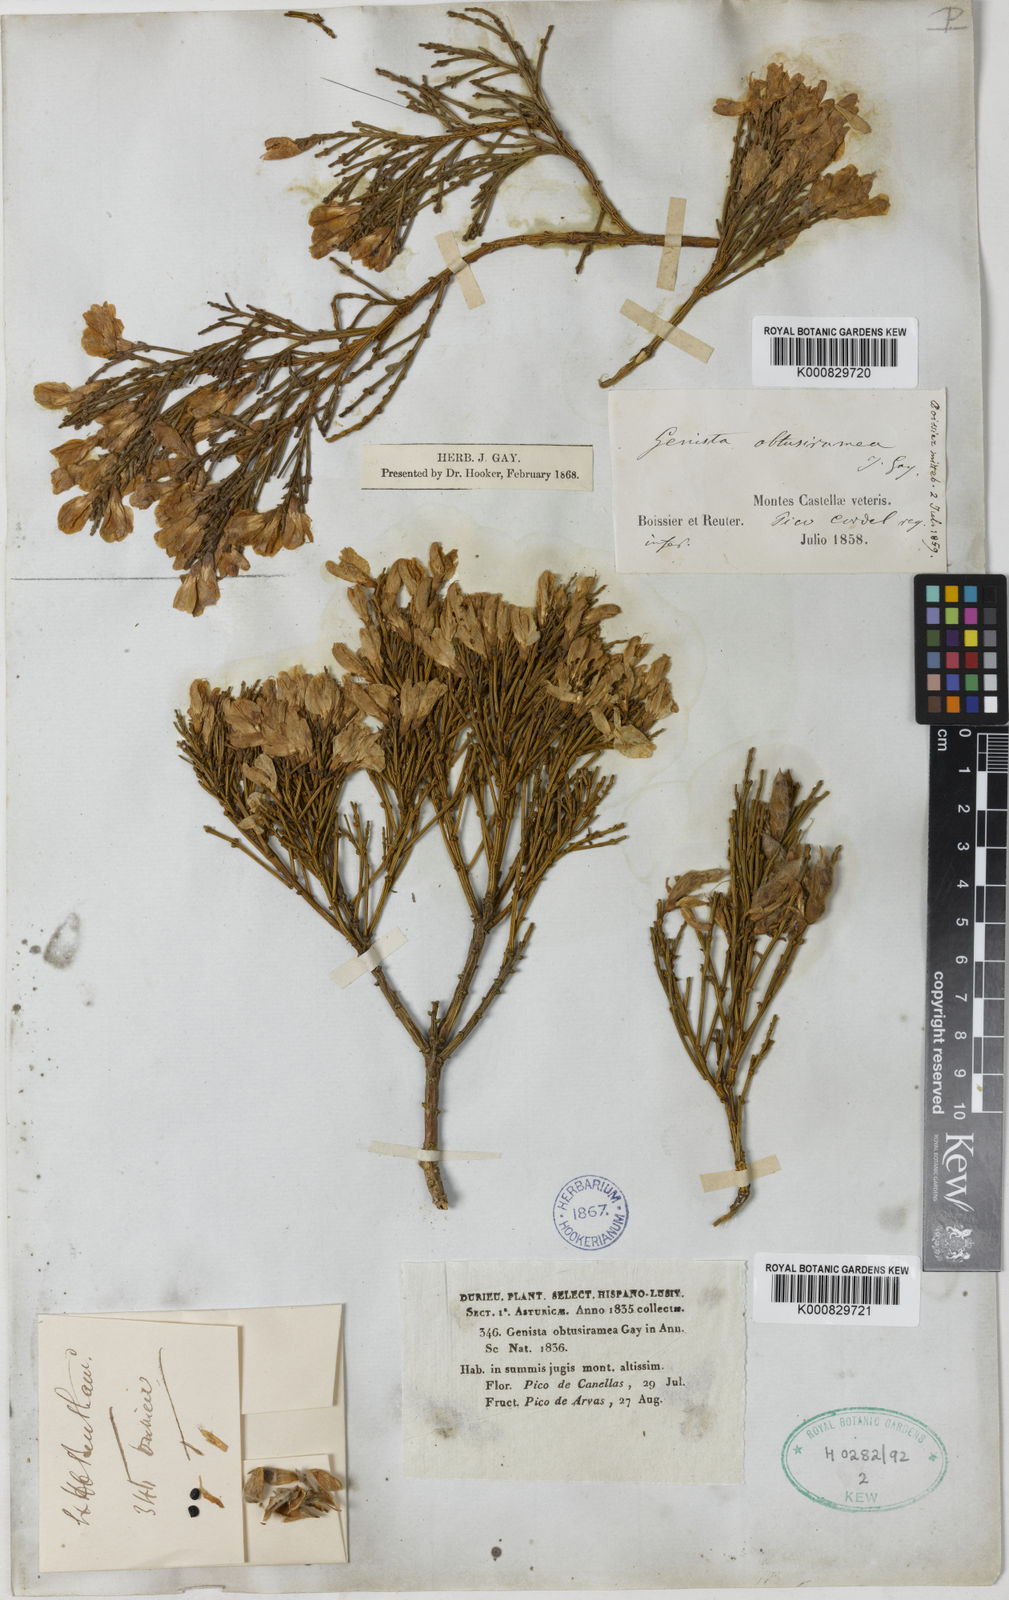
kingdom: Plantae
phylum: Tracheophyta
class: Magnoliopsida
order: Fabales
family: Fabaceae
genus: Genista
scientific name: Genista
